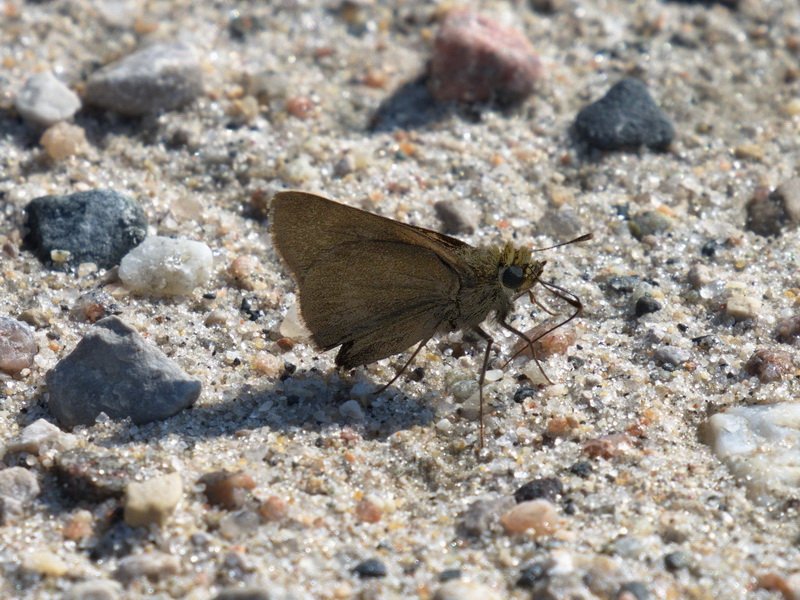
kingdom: Animalia
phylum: Arthropoda
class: Insecta
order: Lepidoptera
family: Hesperiidae
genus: Euphyes
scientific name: Euphyes vestris
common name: Dun Skipper
